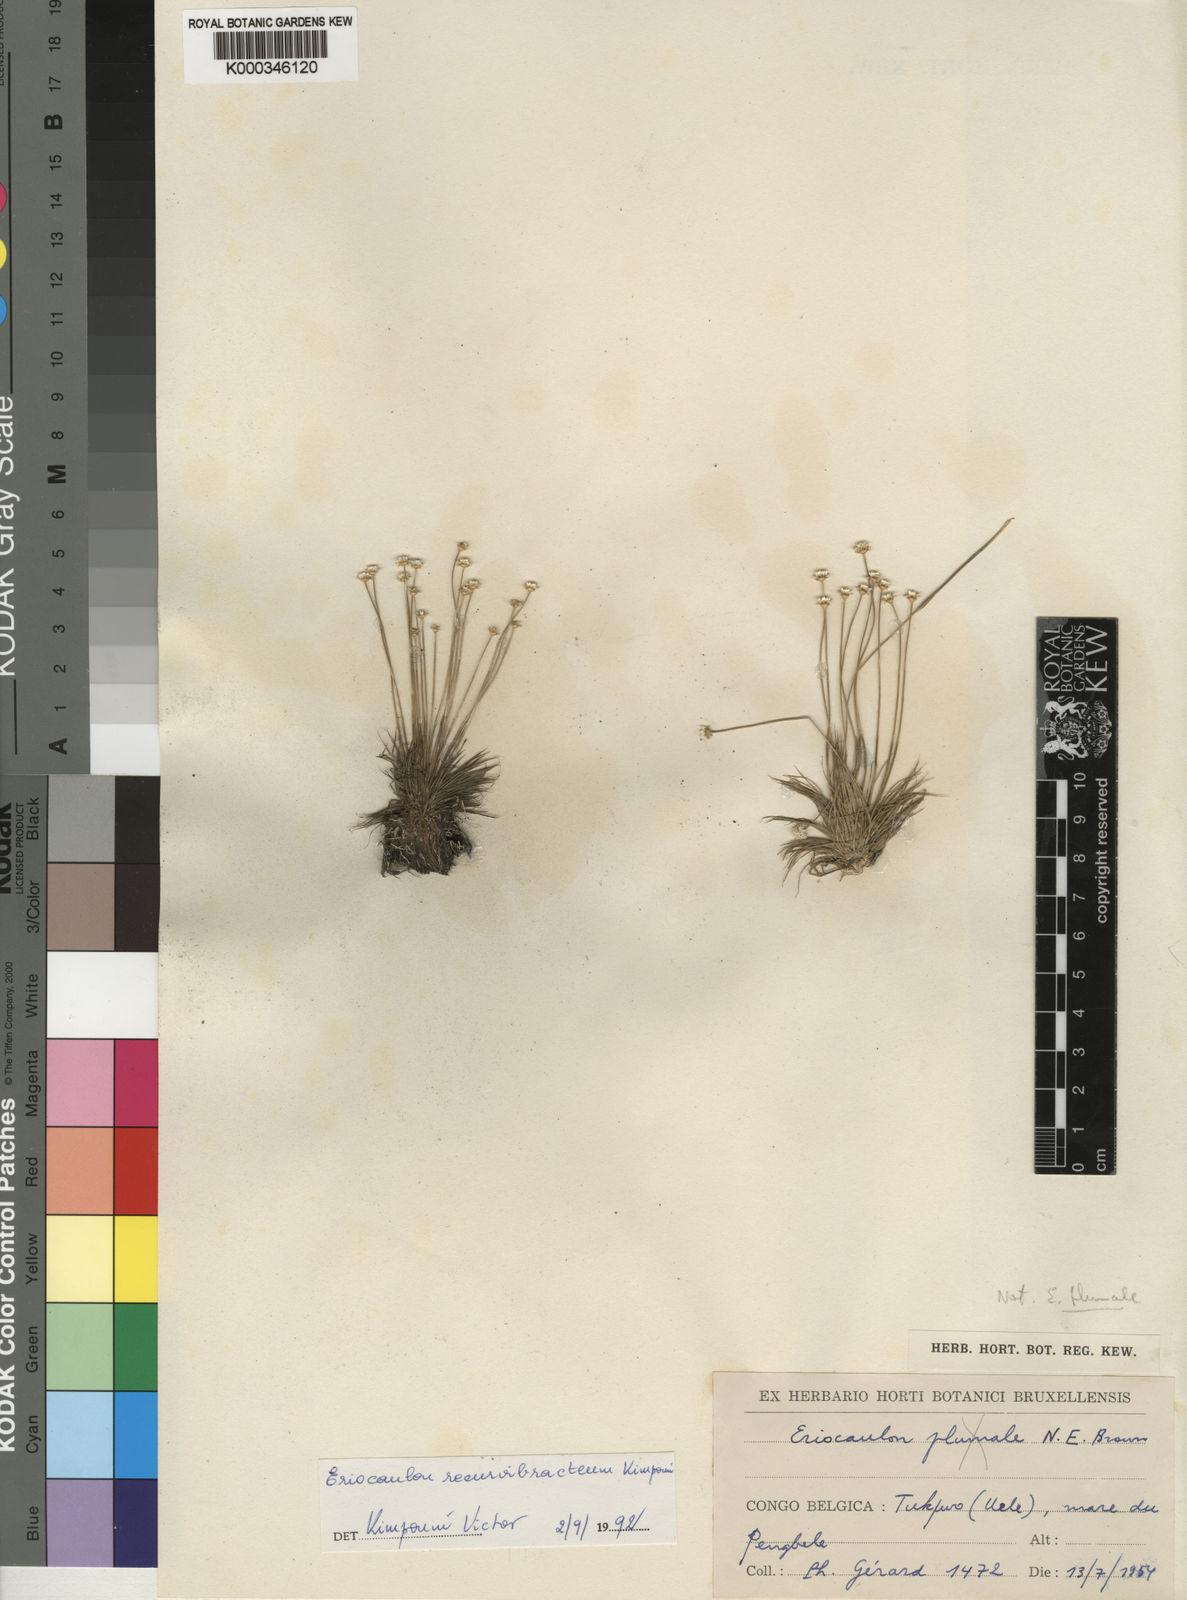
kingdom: Plantae
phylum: Tracheophyta
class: Liliopsida
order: Poales
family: Eriocaulaceae
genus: Eriocaulon
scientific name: Eriocaulon recurvibracteum
